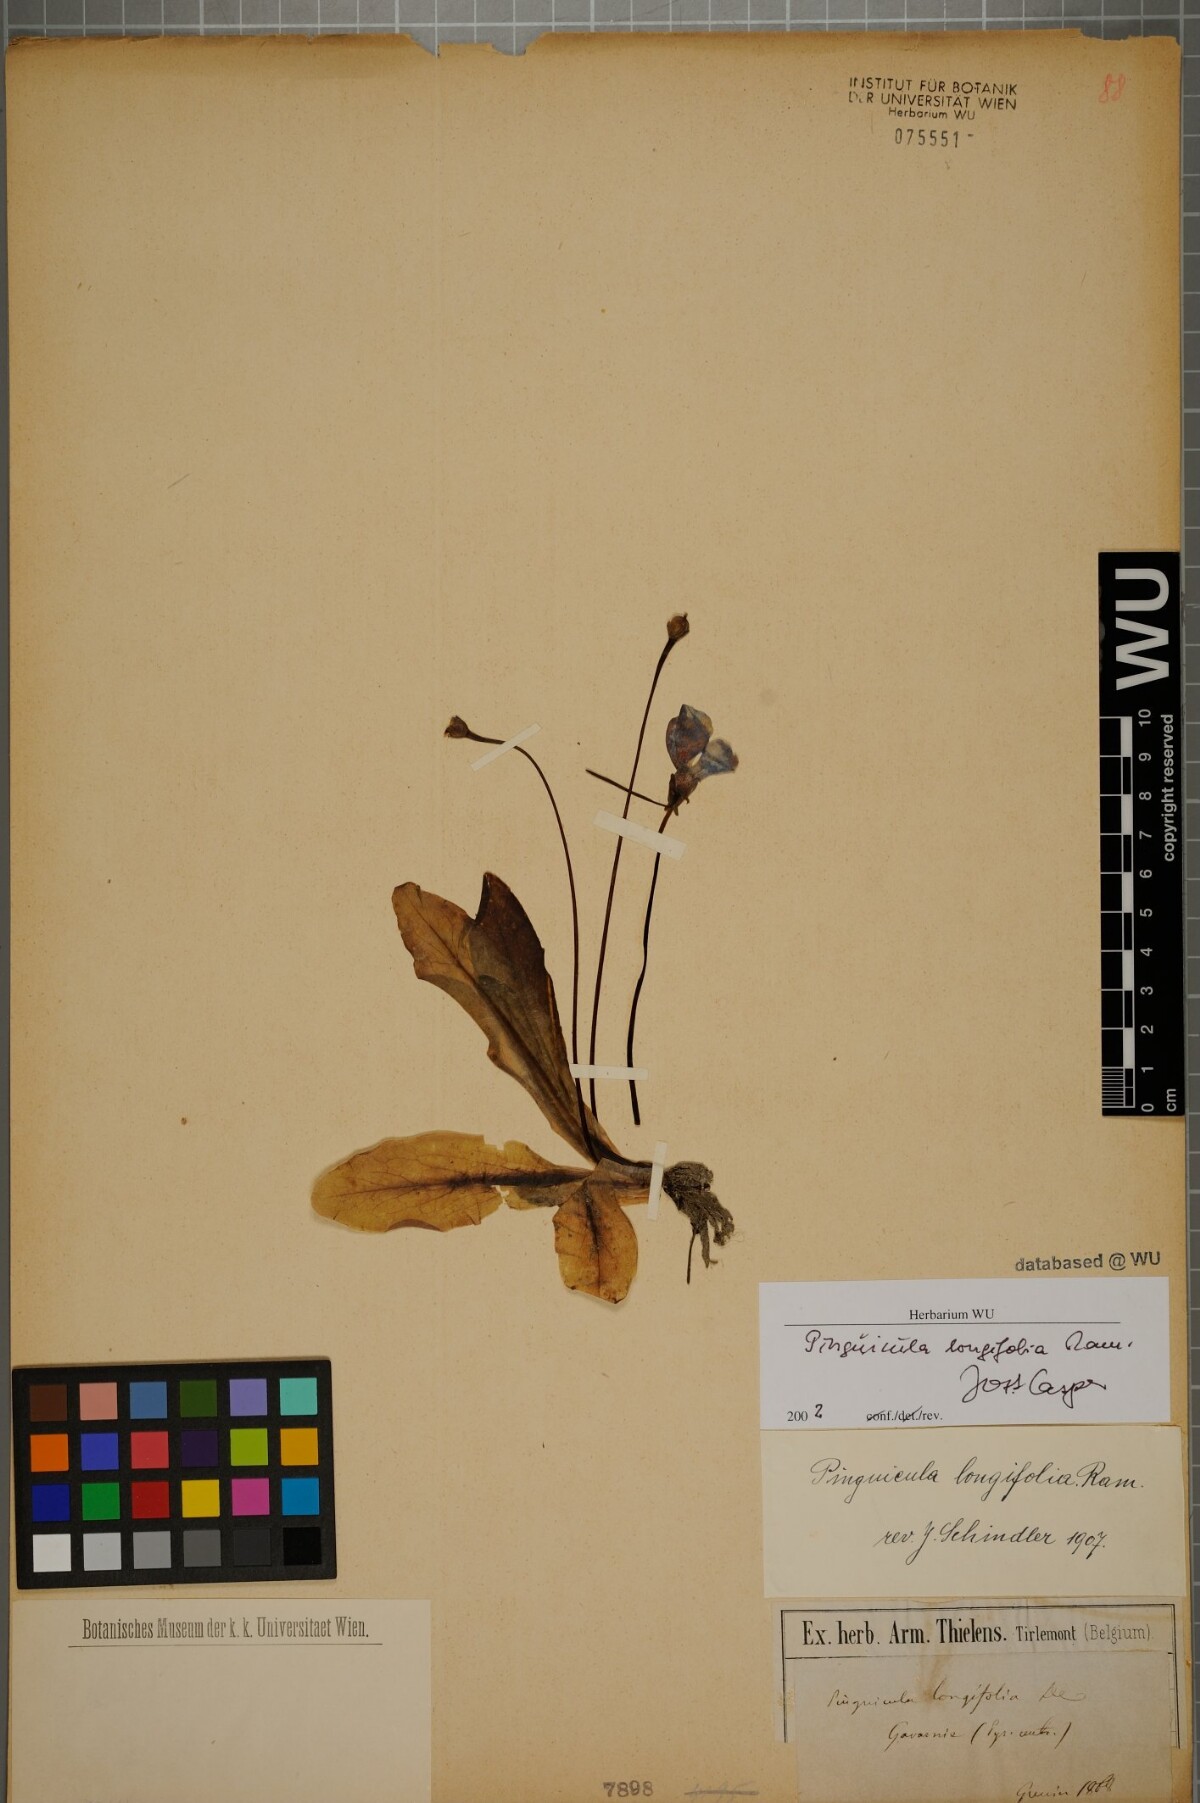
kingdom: Plantae
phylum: Tracheophyta
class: Magnoliopsida
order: Lamiales
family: Lentibulariaceae
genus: Pinguicula
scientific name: Pinguicula longifolia
